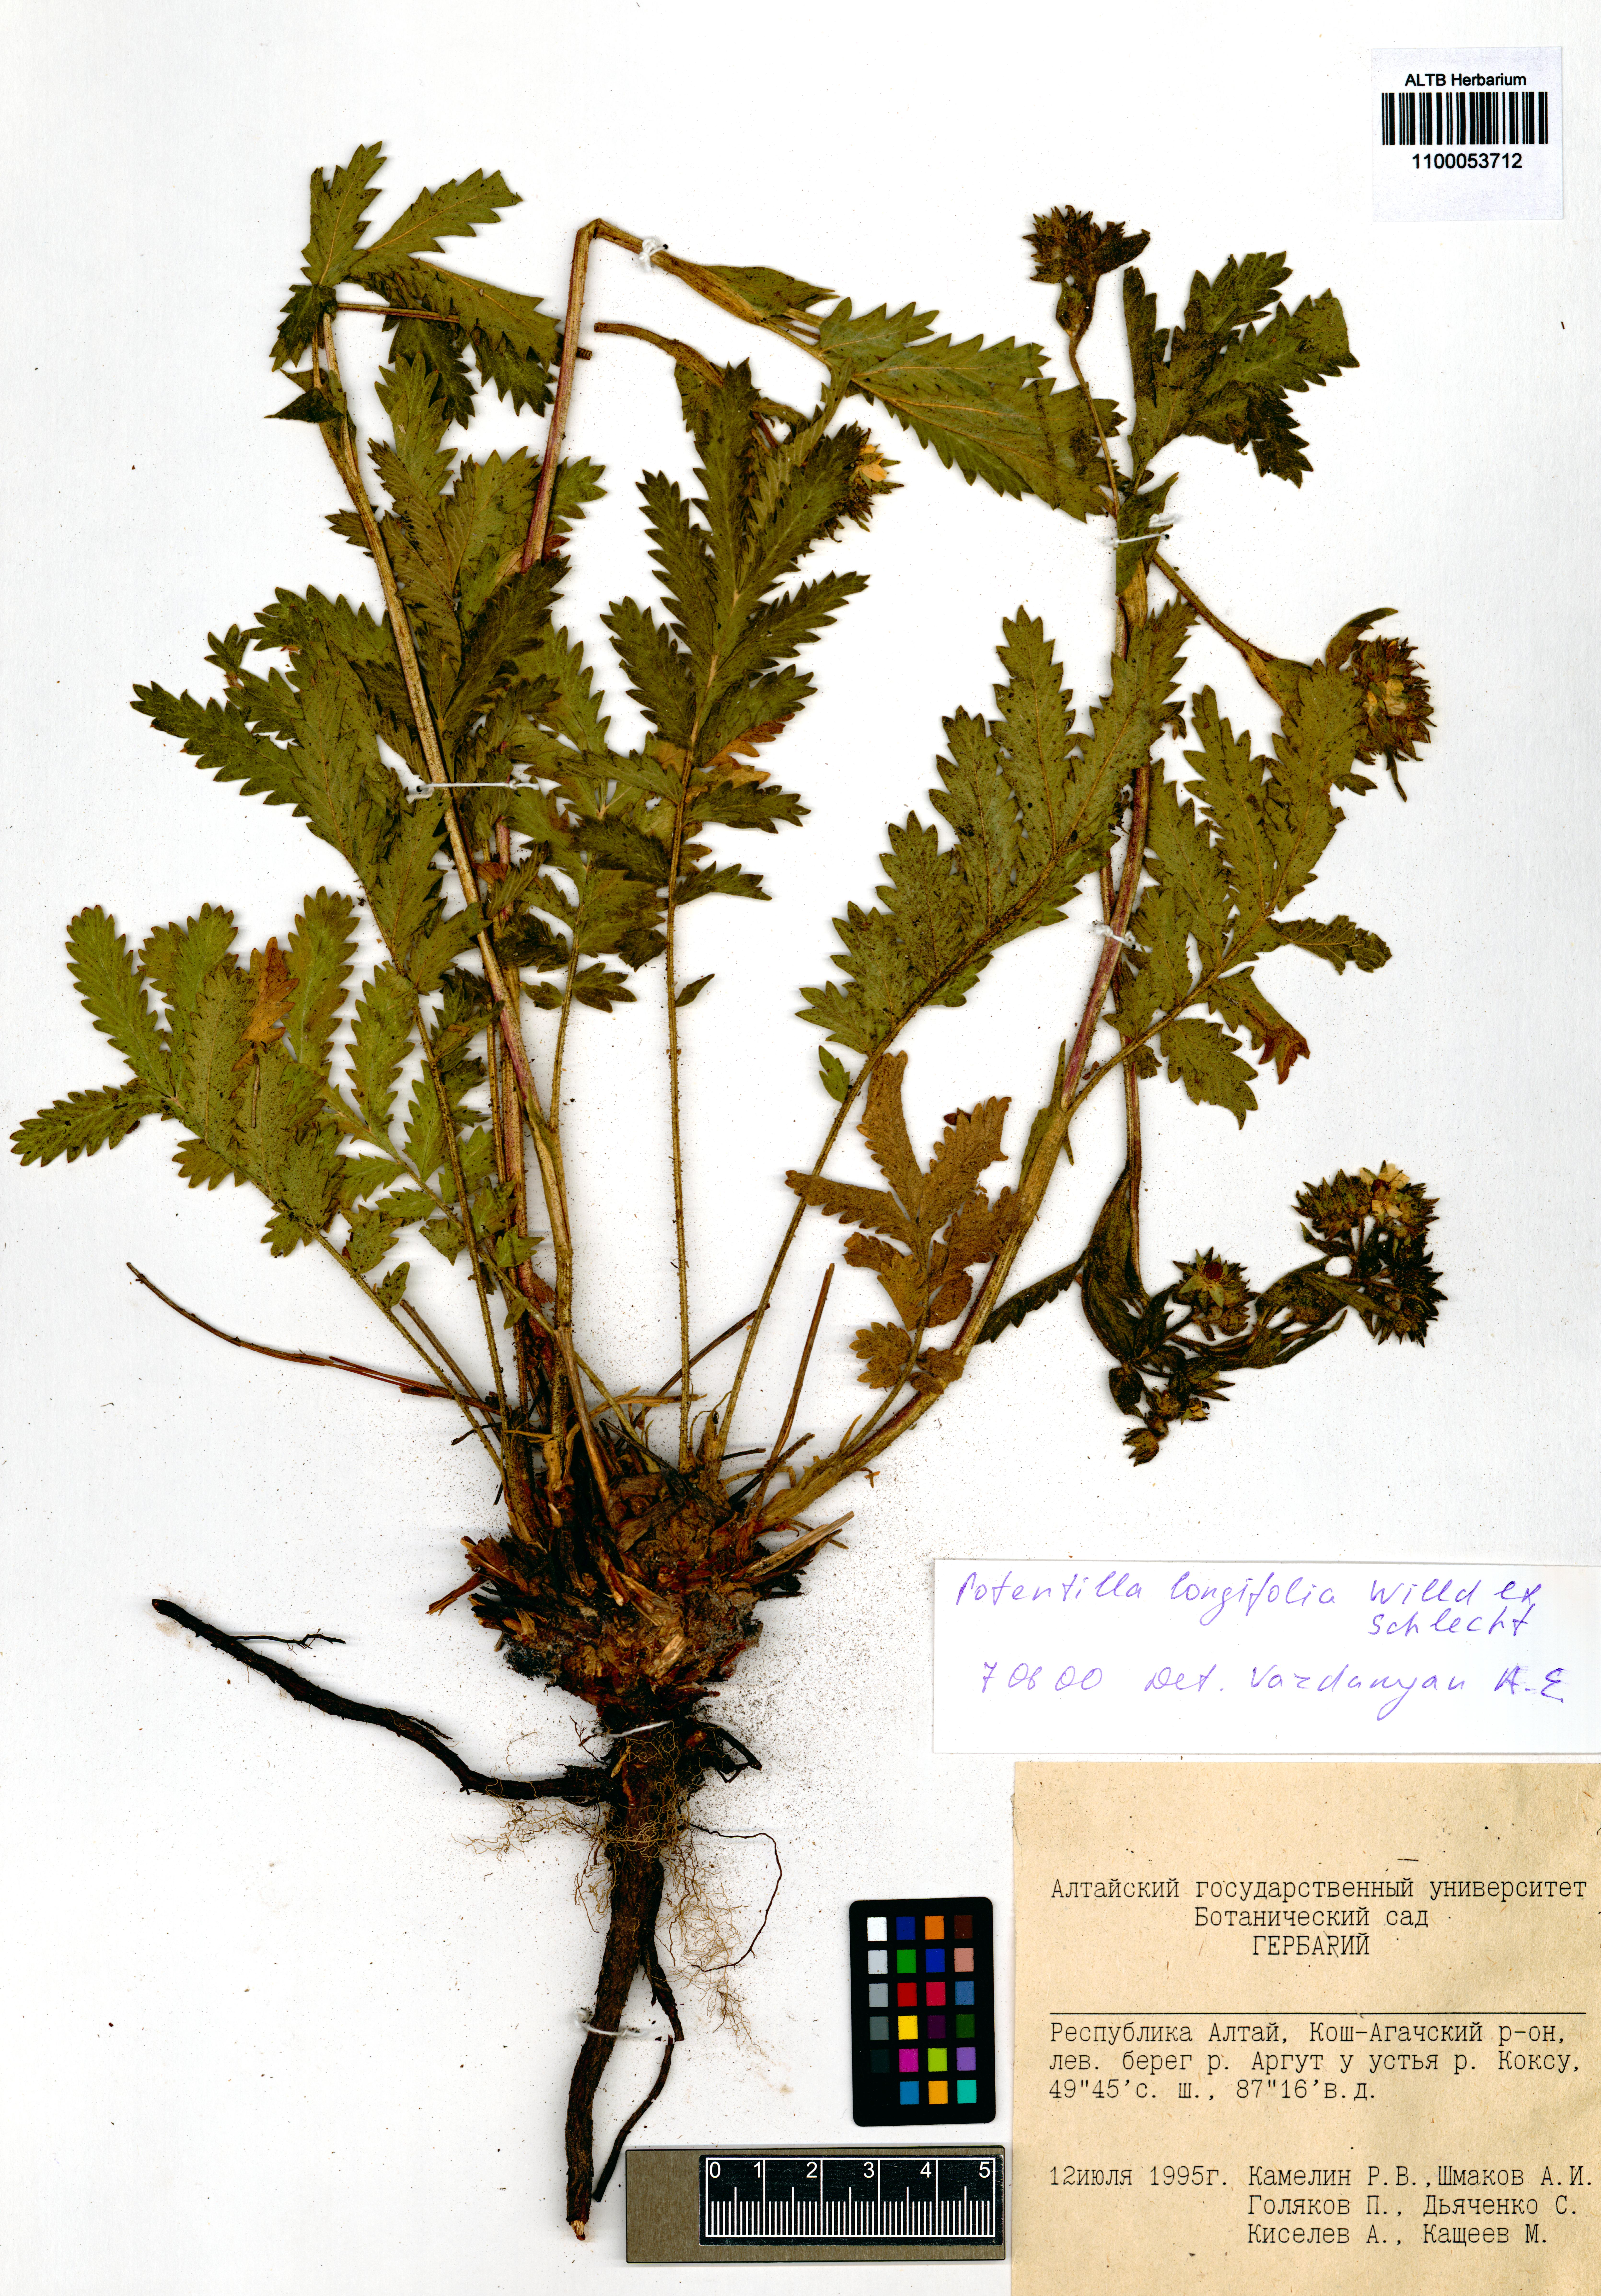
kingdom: Plantae
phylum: Tracheophyta
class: Magnoliopsida
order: Rosales
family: Rosaceae
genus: Potentilla
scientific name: Potentilla longifolia
